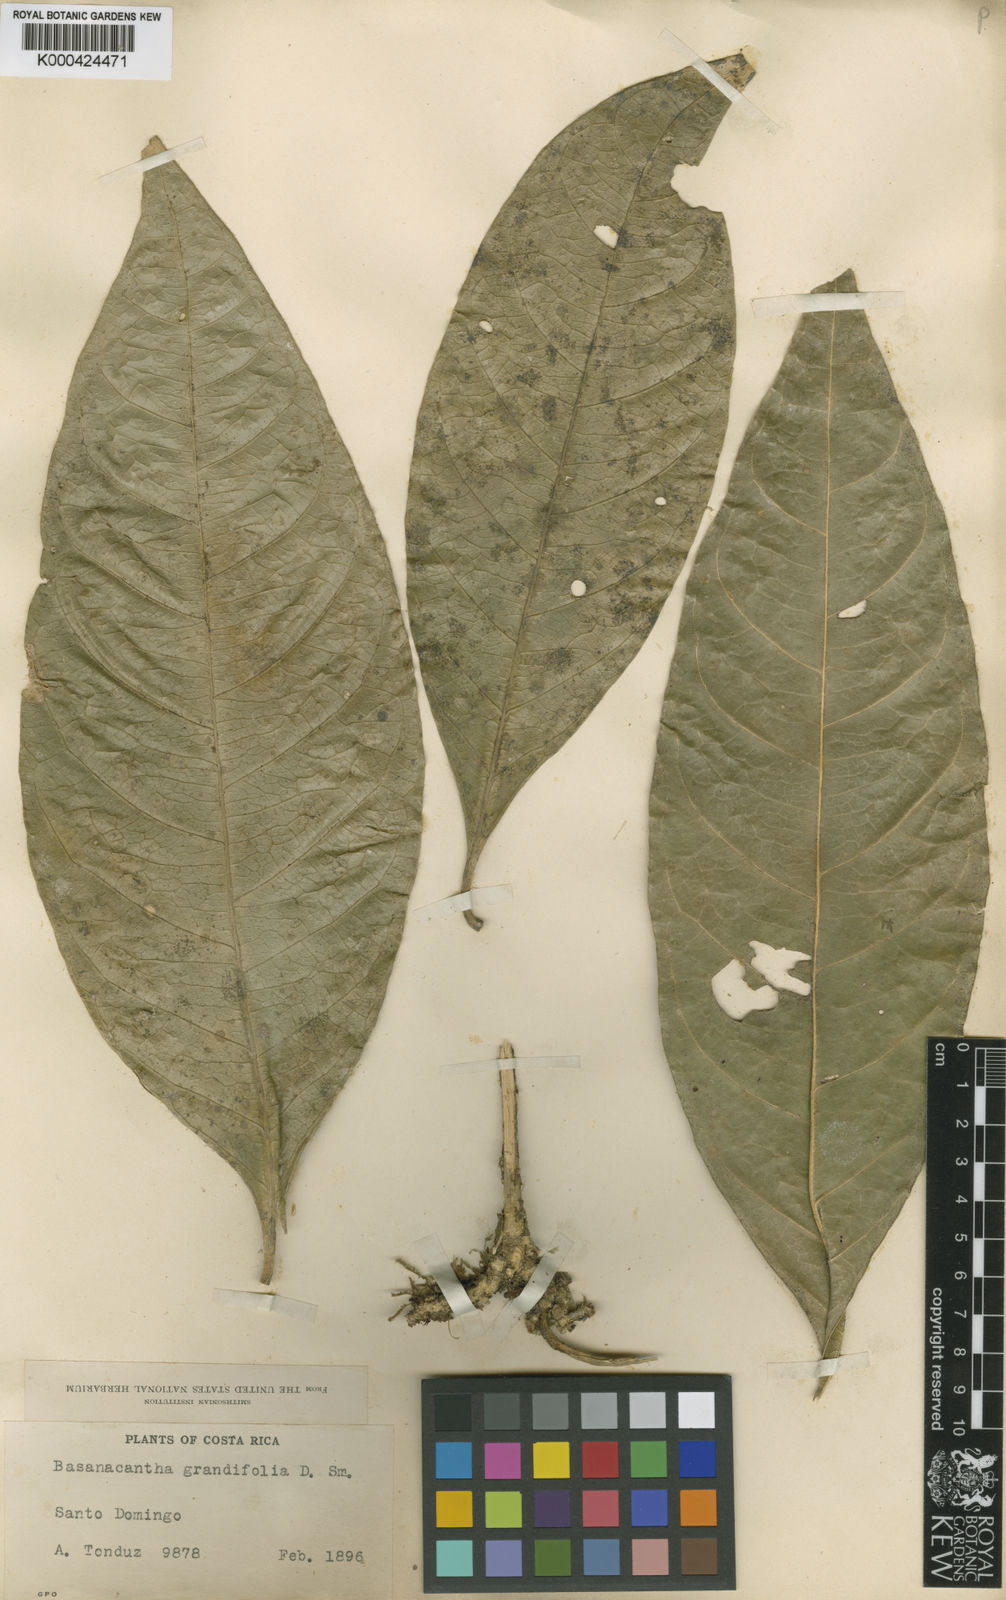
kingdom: Plantae
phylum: Tracheophyta
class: Magnoliopsida
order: Gentianales
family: Rubiaceae
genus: Randia
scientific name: Randia grandifolia
